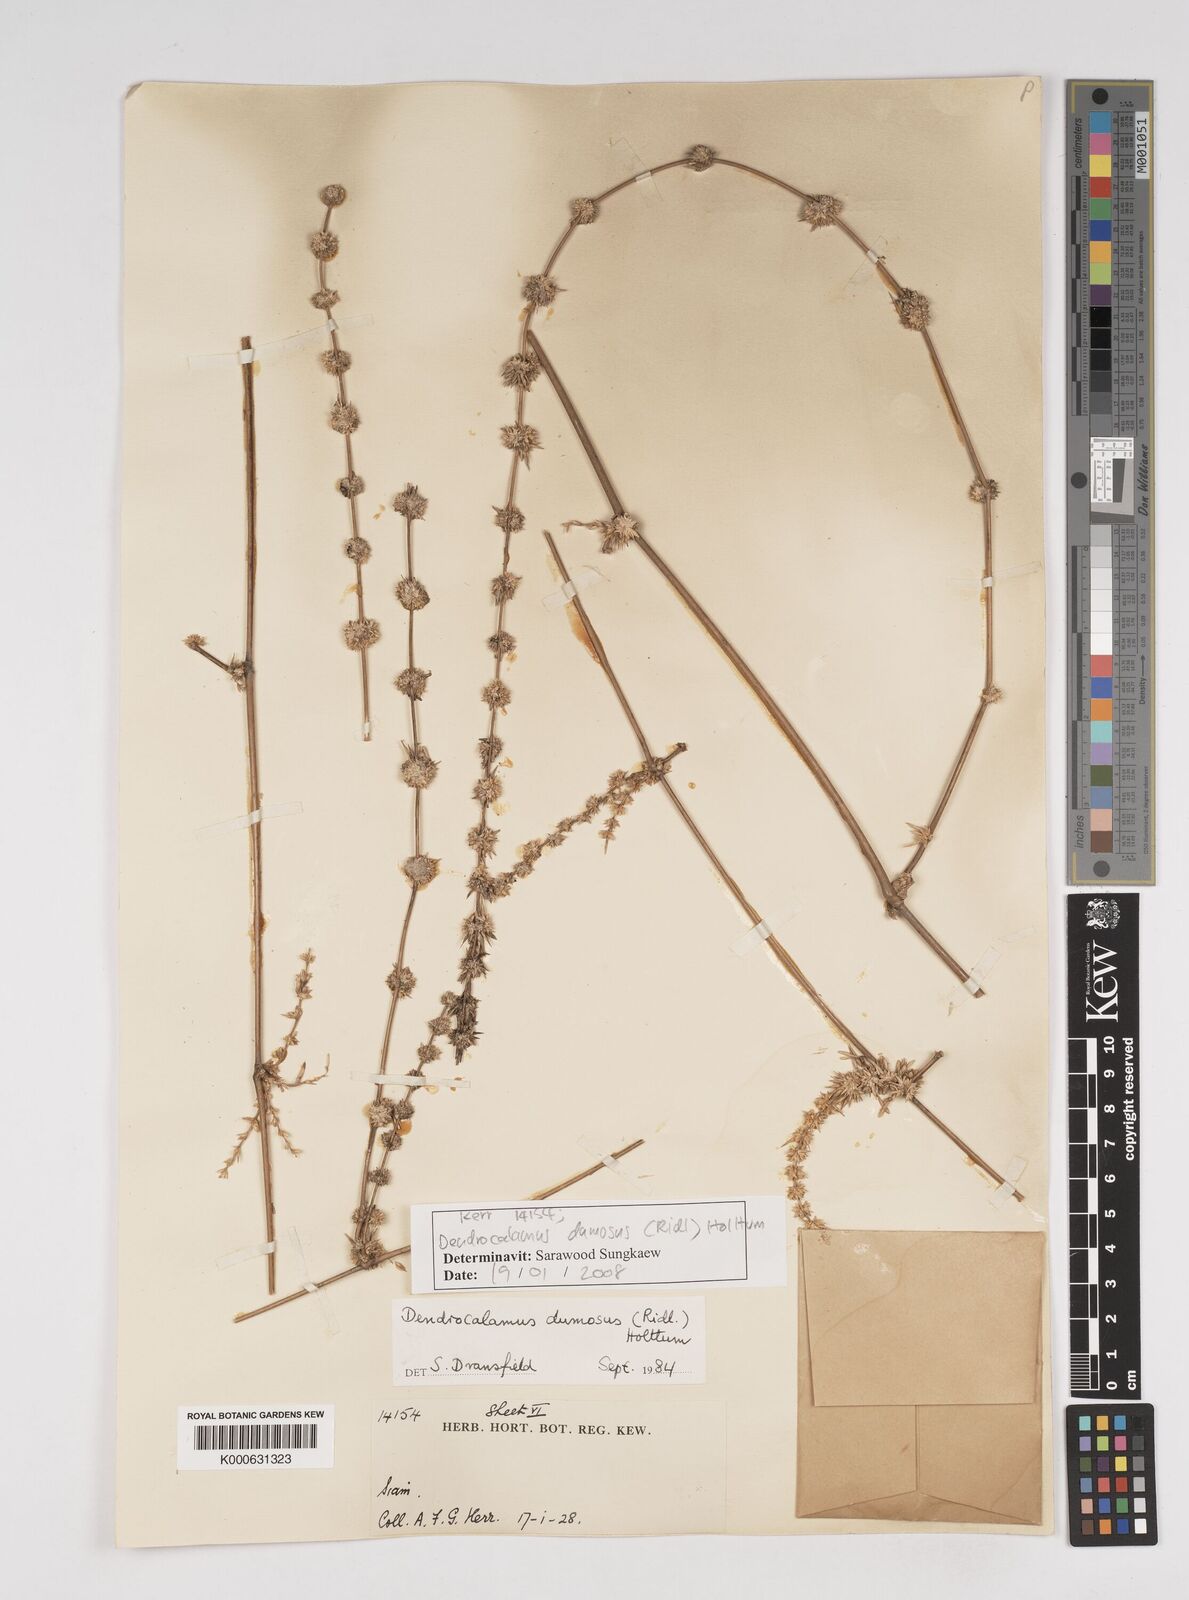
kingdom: Plantae
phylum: Tracheophyta
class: Liliopsida
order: Poales
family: Poaceae
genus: Dendrocalamus
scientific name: Dendrocalamus dumosus
